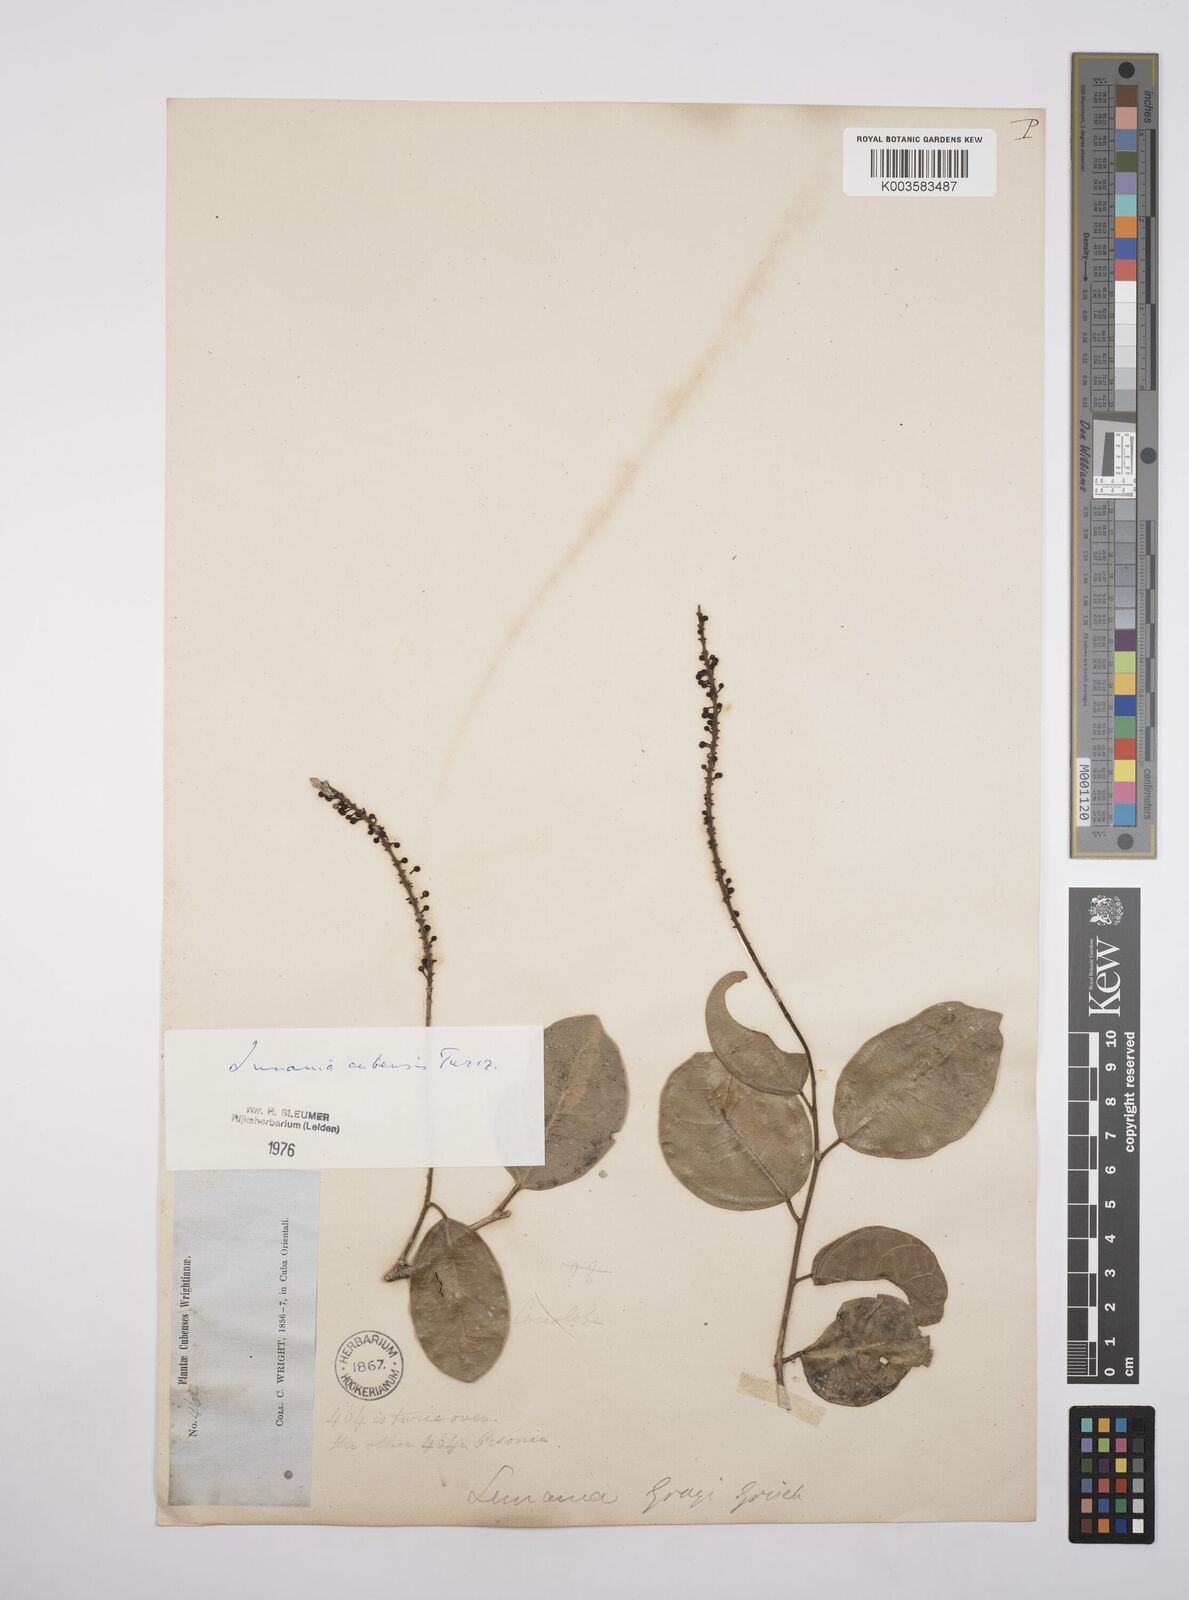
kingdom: Plantae
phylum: Tracheophyta
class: Magnoliopsida
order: Malpighiales
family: Salicaceae
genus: Lunania
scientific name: Lunania cubensis
